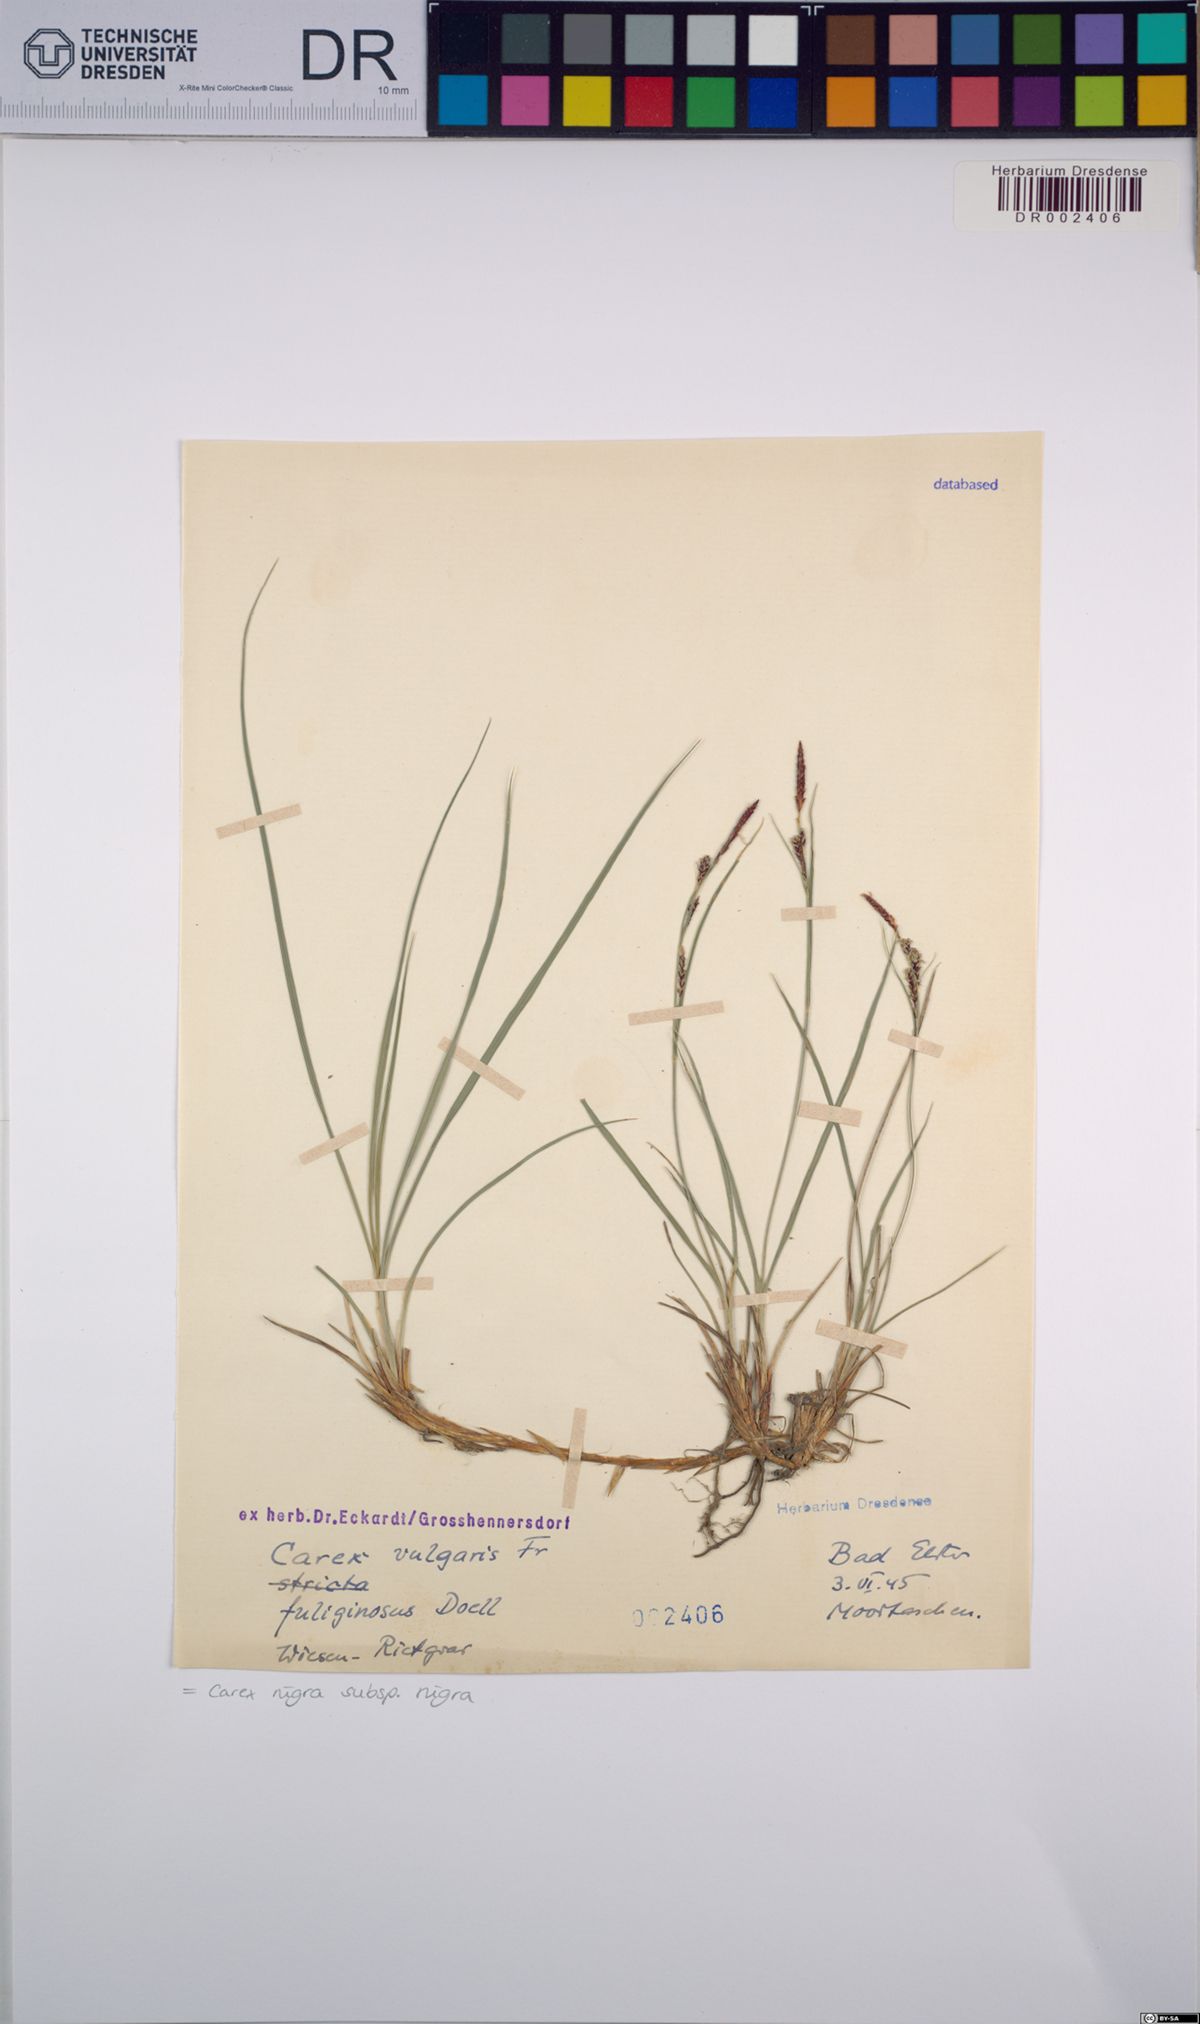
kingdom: Plantae
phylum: Tracheophyta
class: Liliopsida
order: Poales
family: Cyperaceae
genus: Carex
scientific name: Carex nigra
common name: Common sedge
